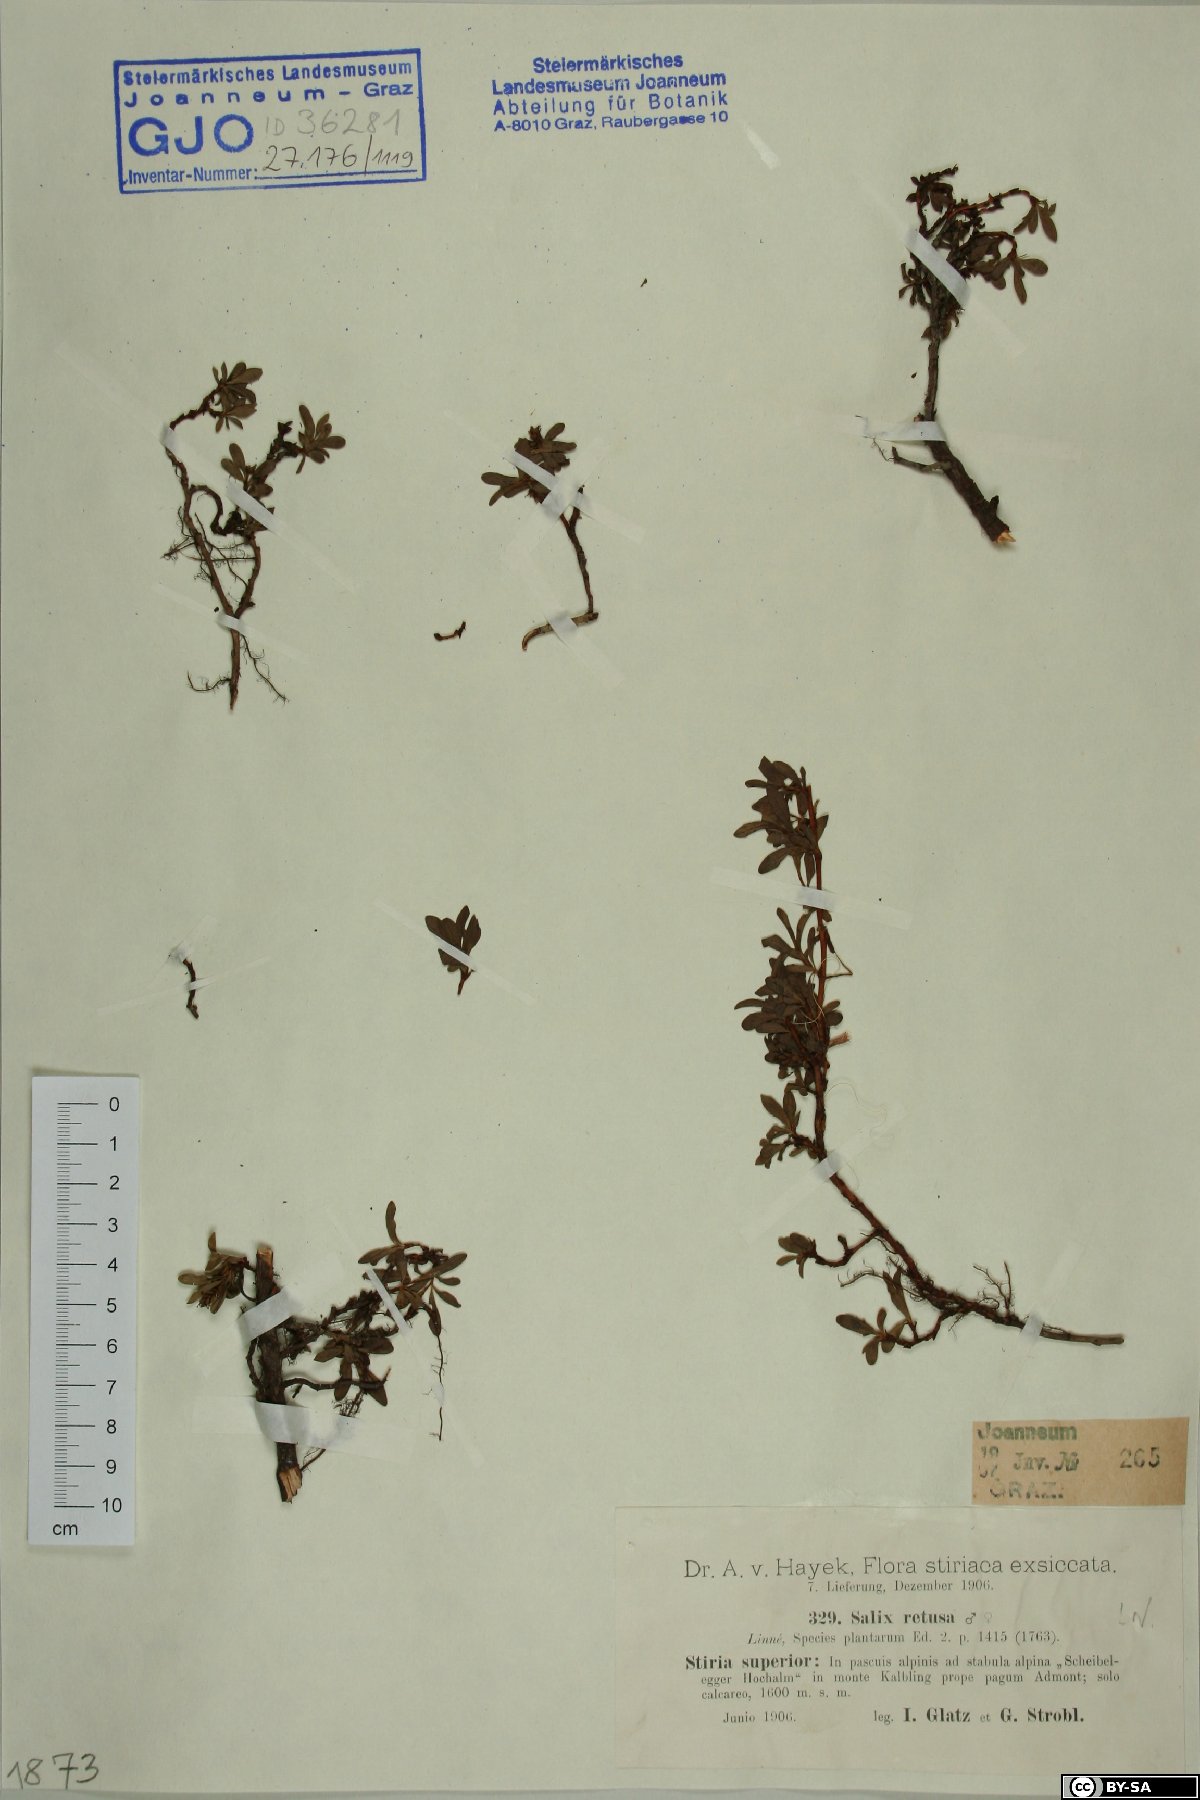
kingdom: Plantae
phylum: Tracheophyta
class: Magnoliopsida
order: Malpighiales
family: Salicaceae
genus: Salix
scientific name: Salix retusa
